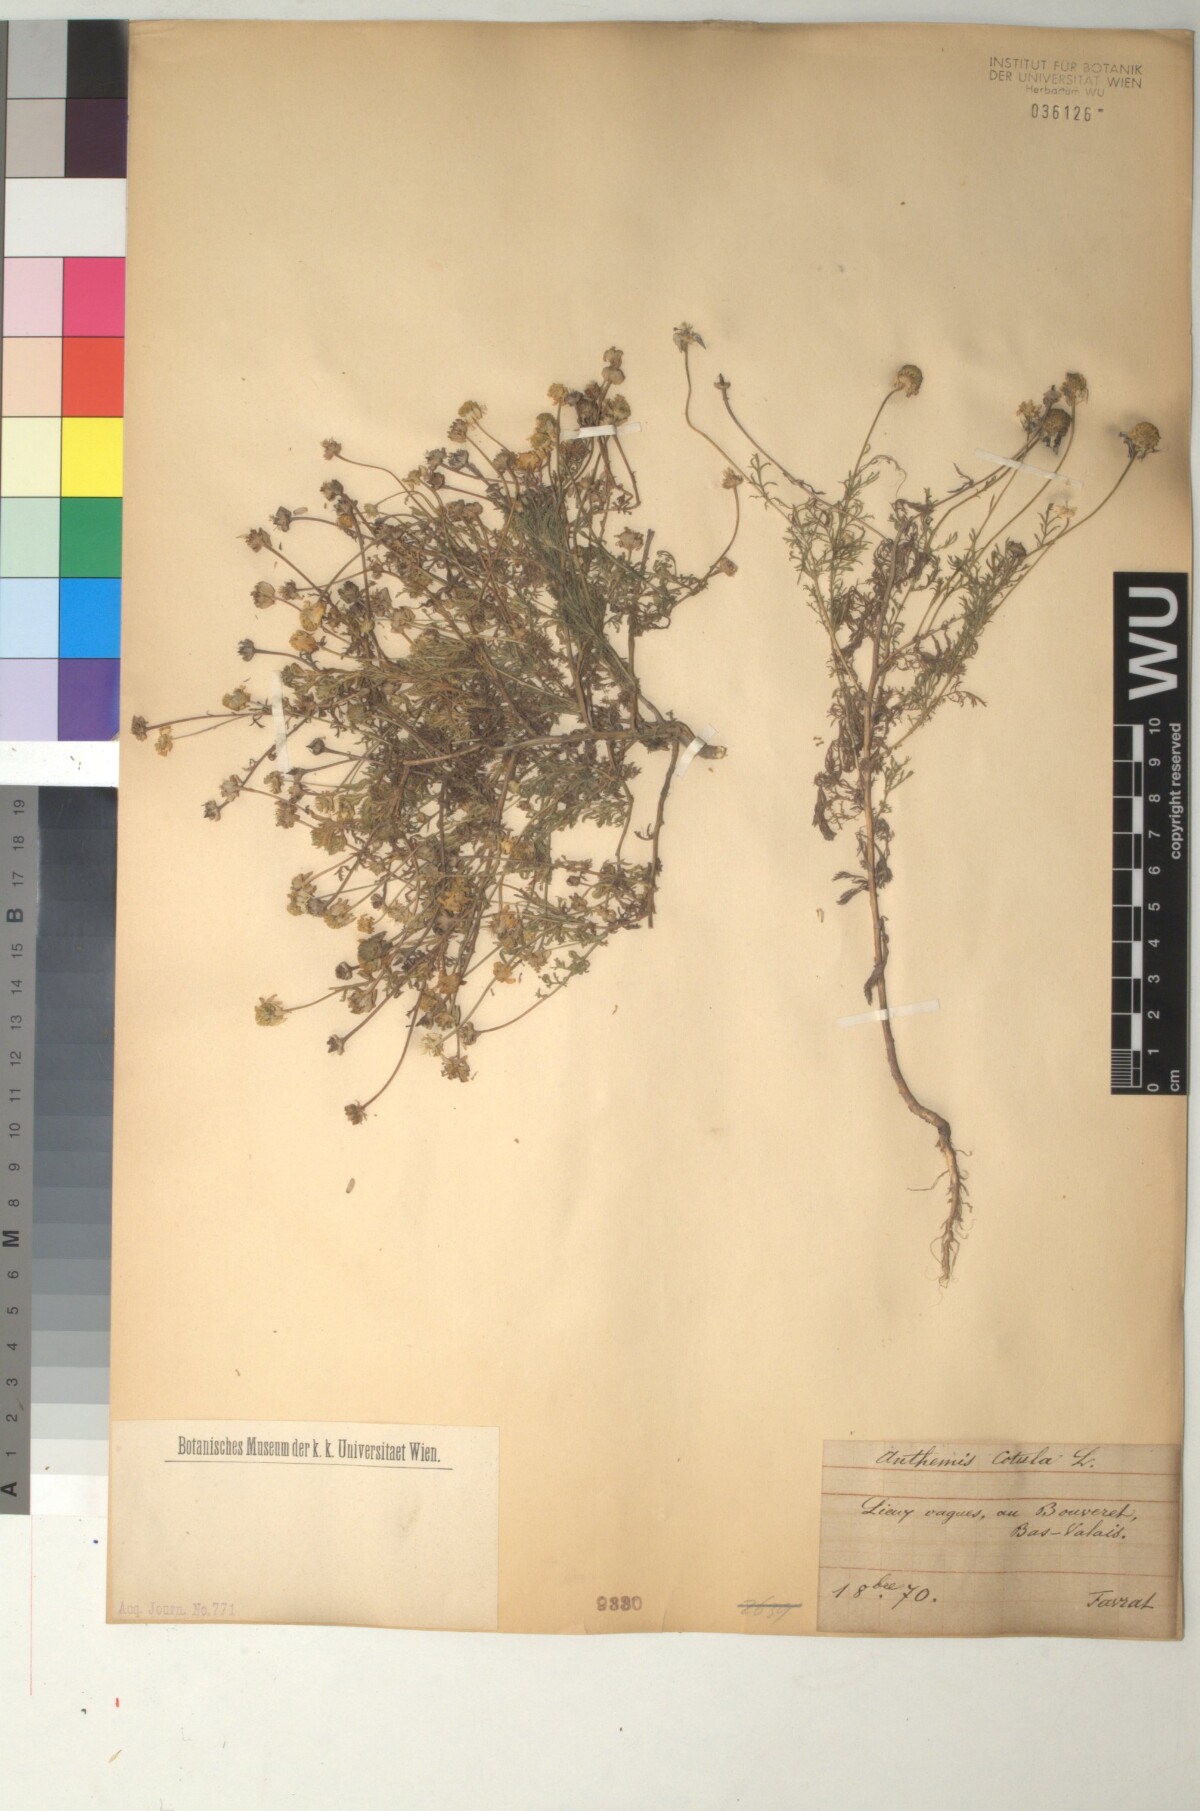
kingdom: Plantae
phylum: Tracheophyta
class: Magnoliopsida
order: Asterales
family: Asteraceae
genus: Anthemis
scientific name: Anthemis cotula
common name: Stinking chamomile
